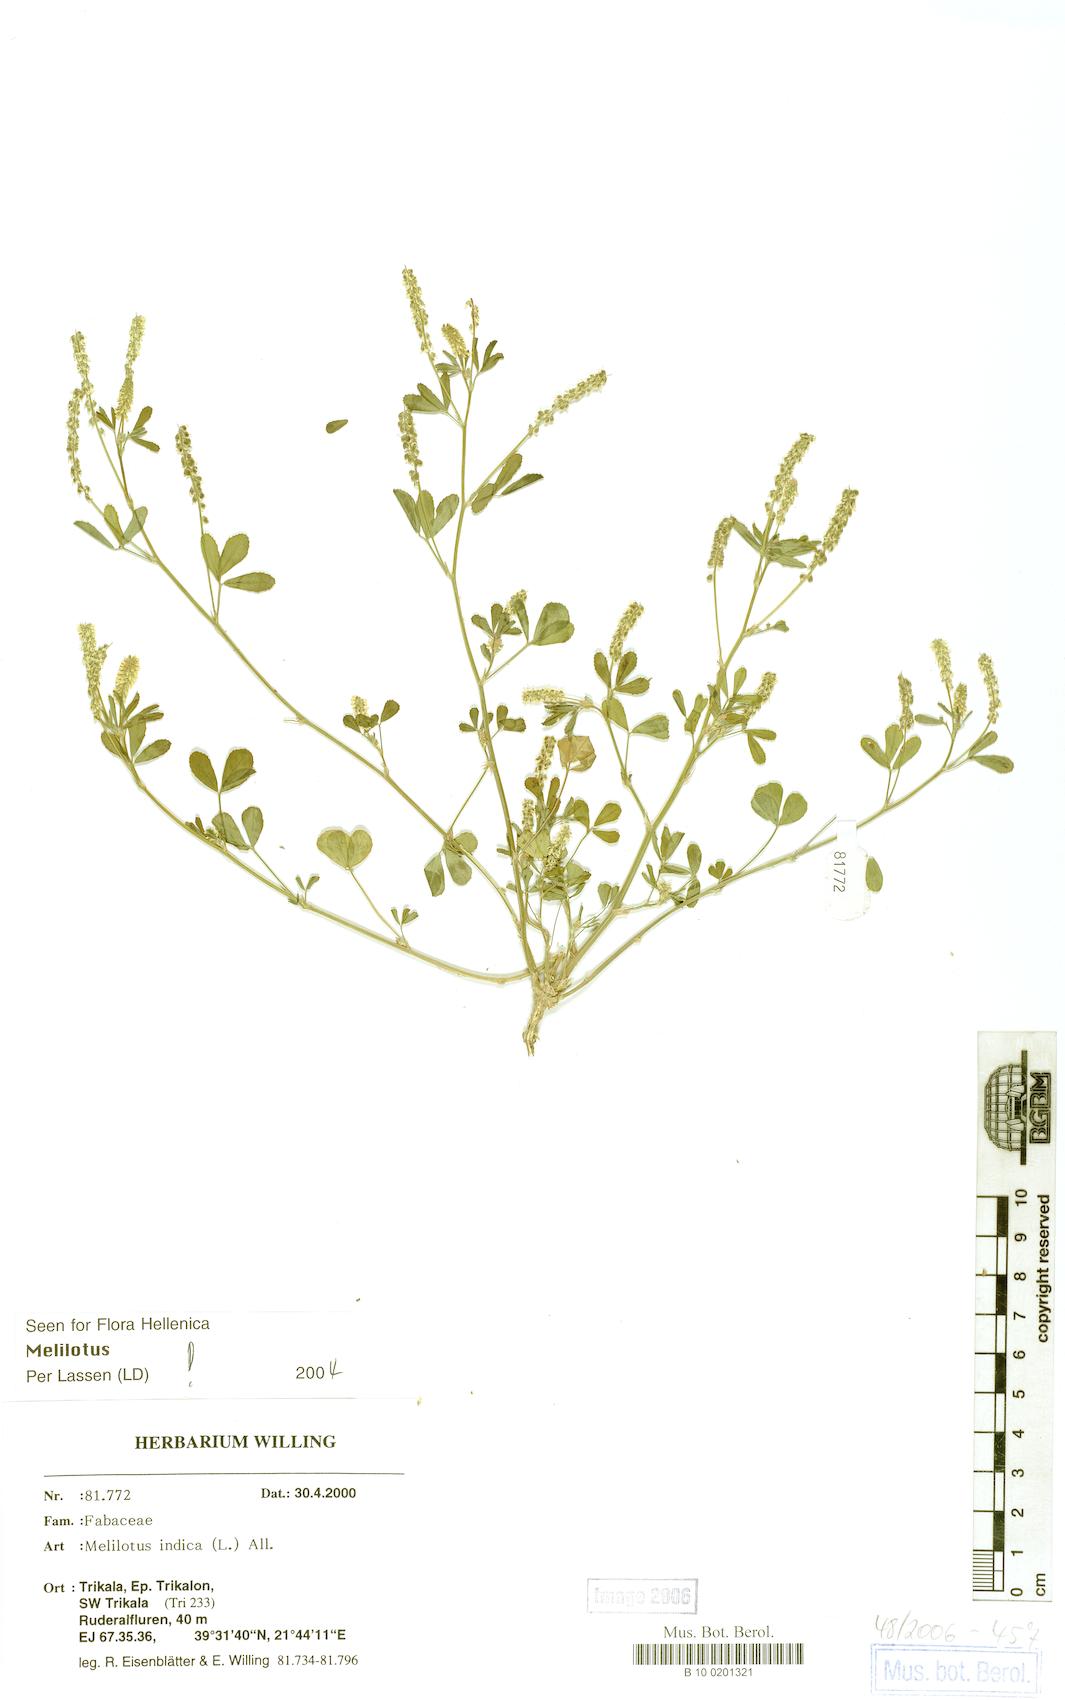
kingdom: Plantae
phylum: Tracheophyta
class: Magnoliopsida
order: Fabales
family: Fabaceae
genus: Melilotus
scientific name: Melilotus indicus
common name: Small melilot
